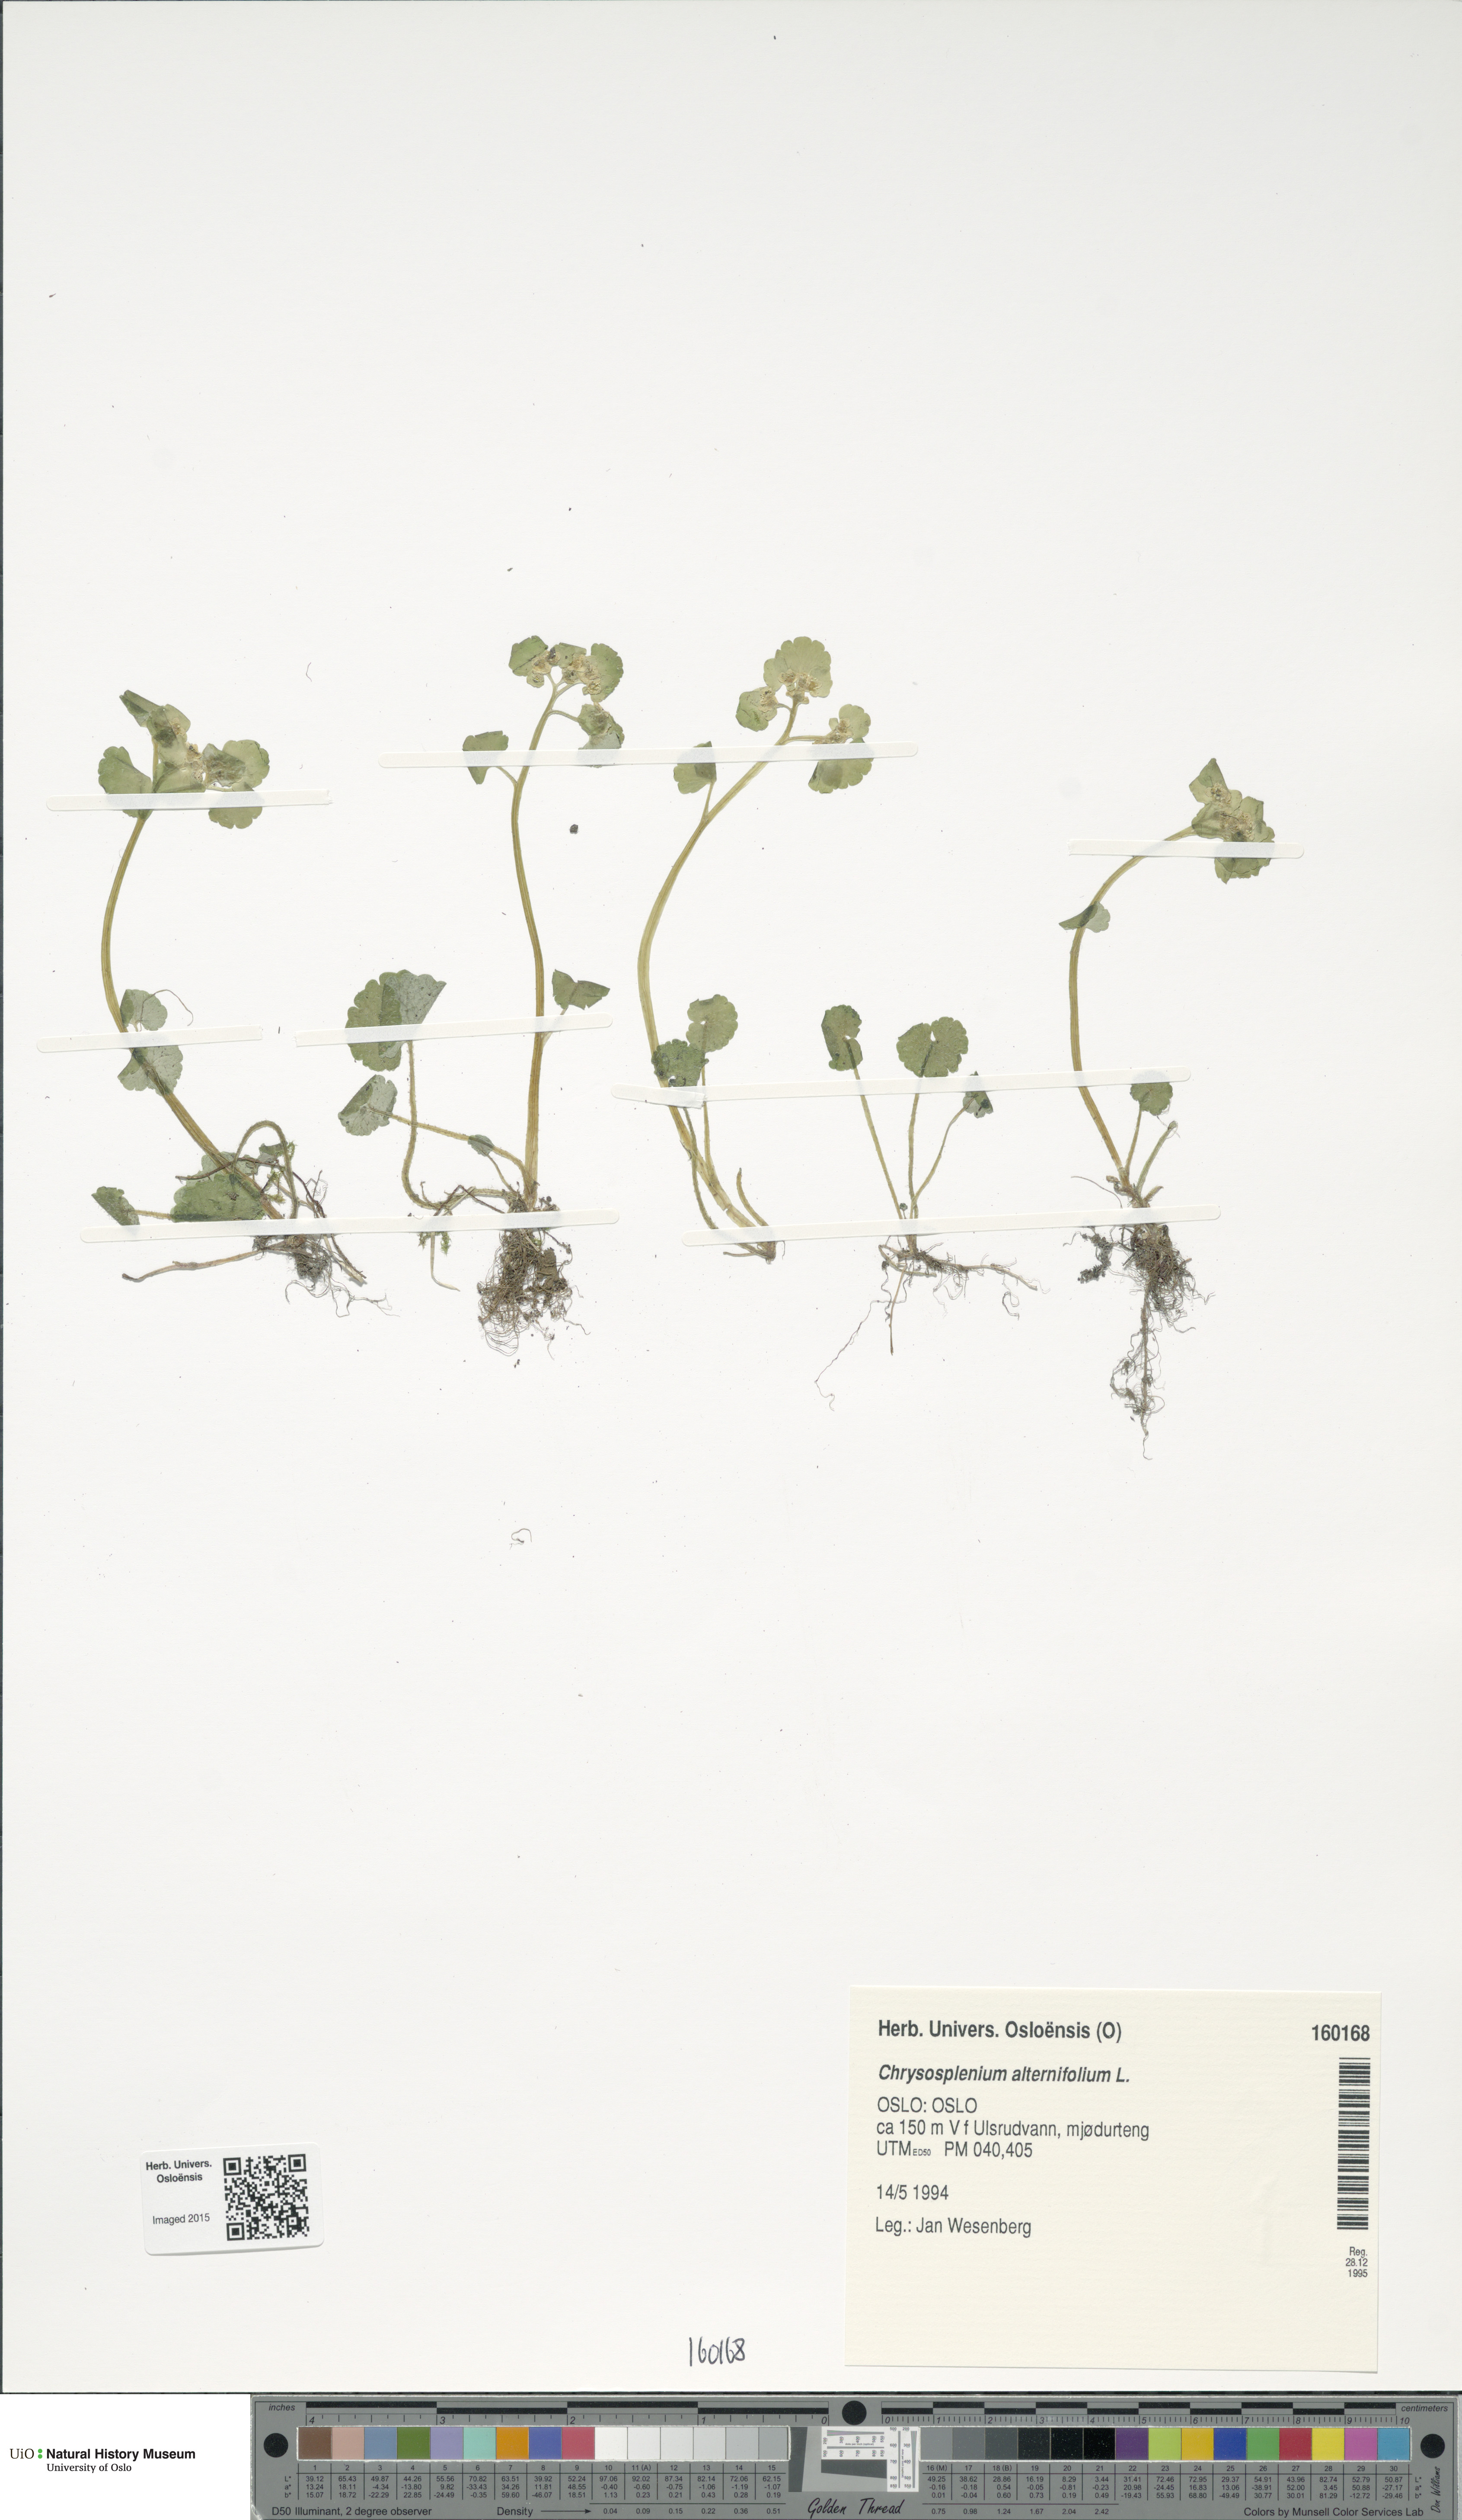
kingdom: Plantae
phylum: Tracheophyta
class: Magnoliopsida
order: Saxifragales
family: Saxifragaceae
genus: Chrysosplenium
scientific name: Chrysosplenium alternifolium
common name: Alternate-leaved golden-saxifrage
